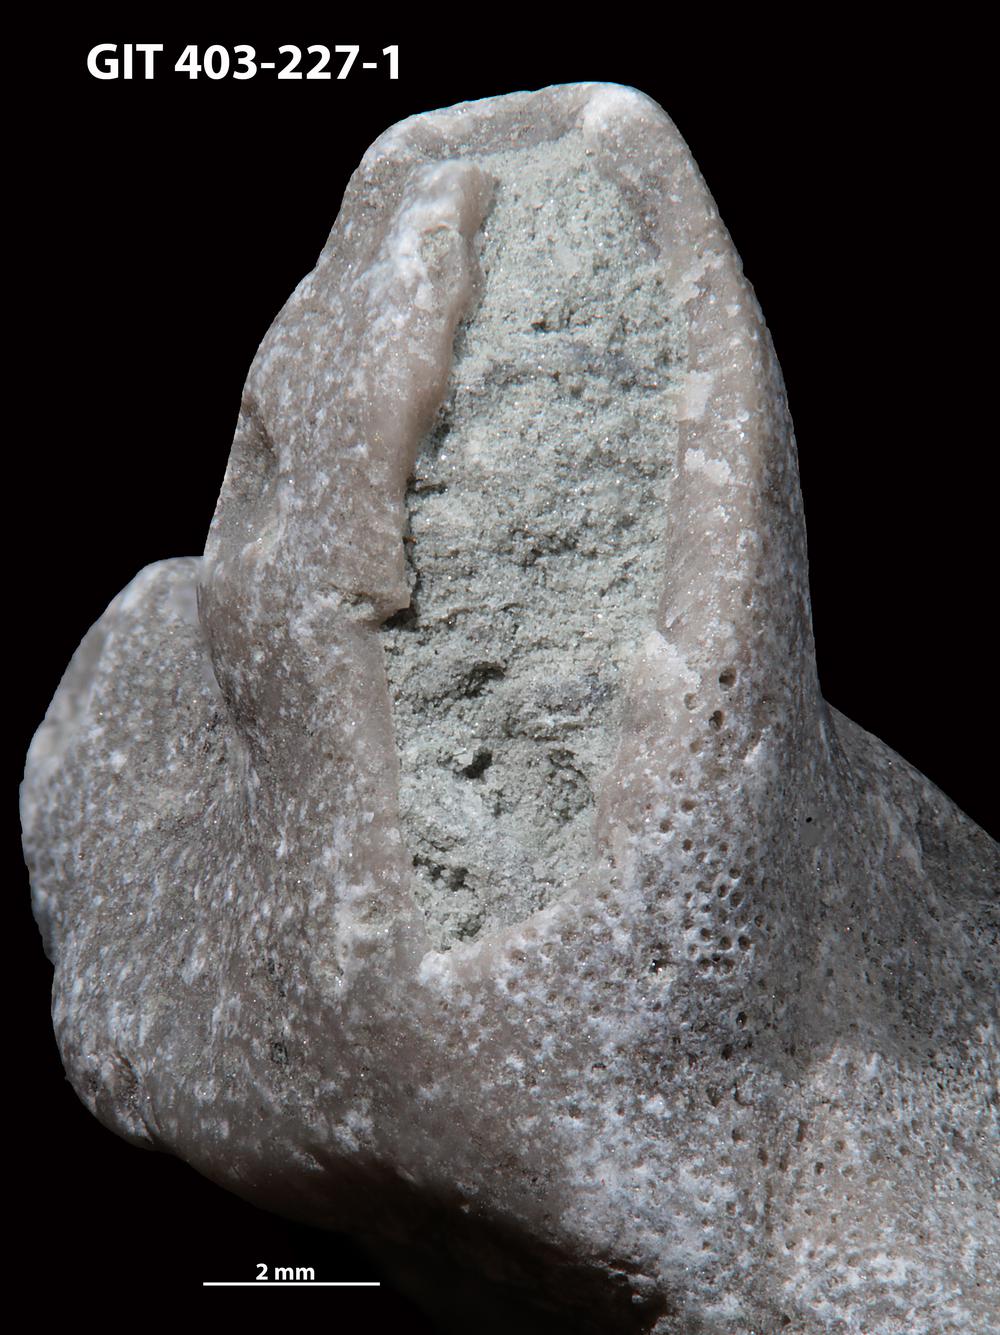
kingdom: Animalia
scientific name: Animalia
